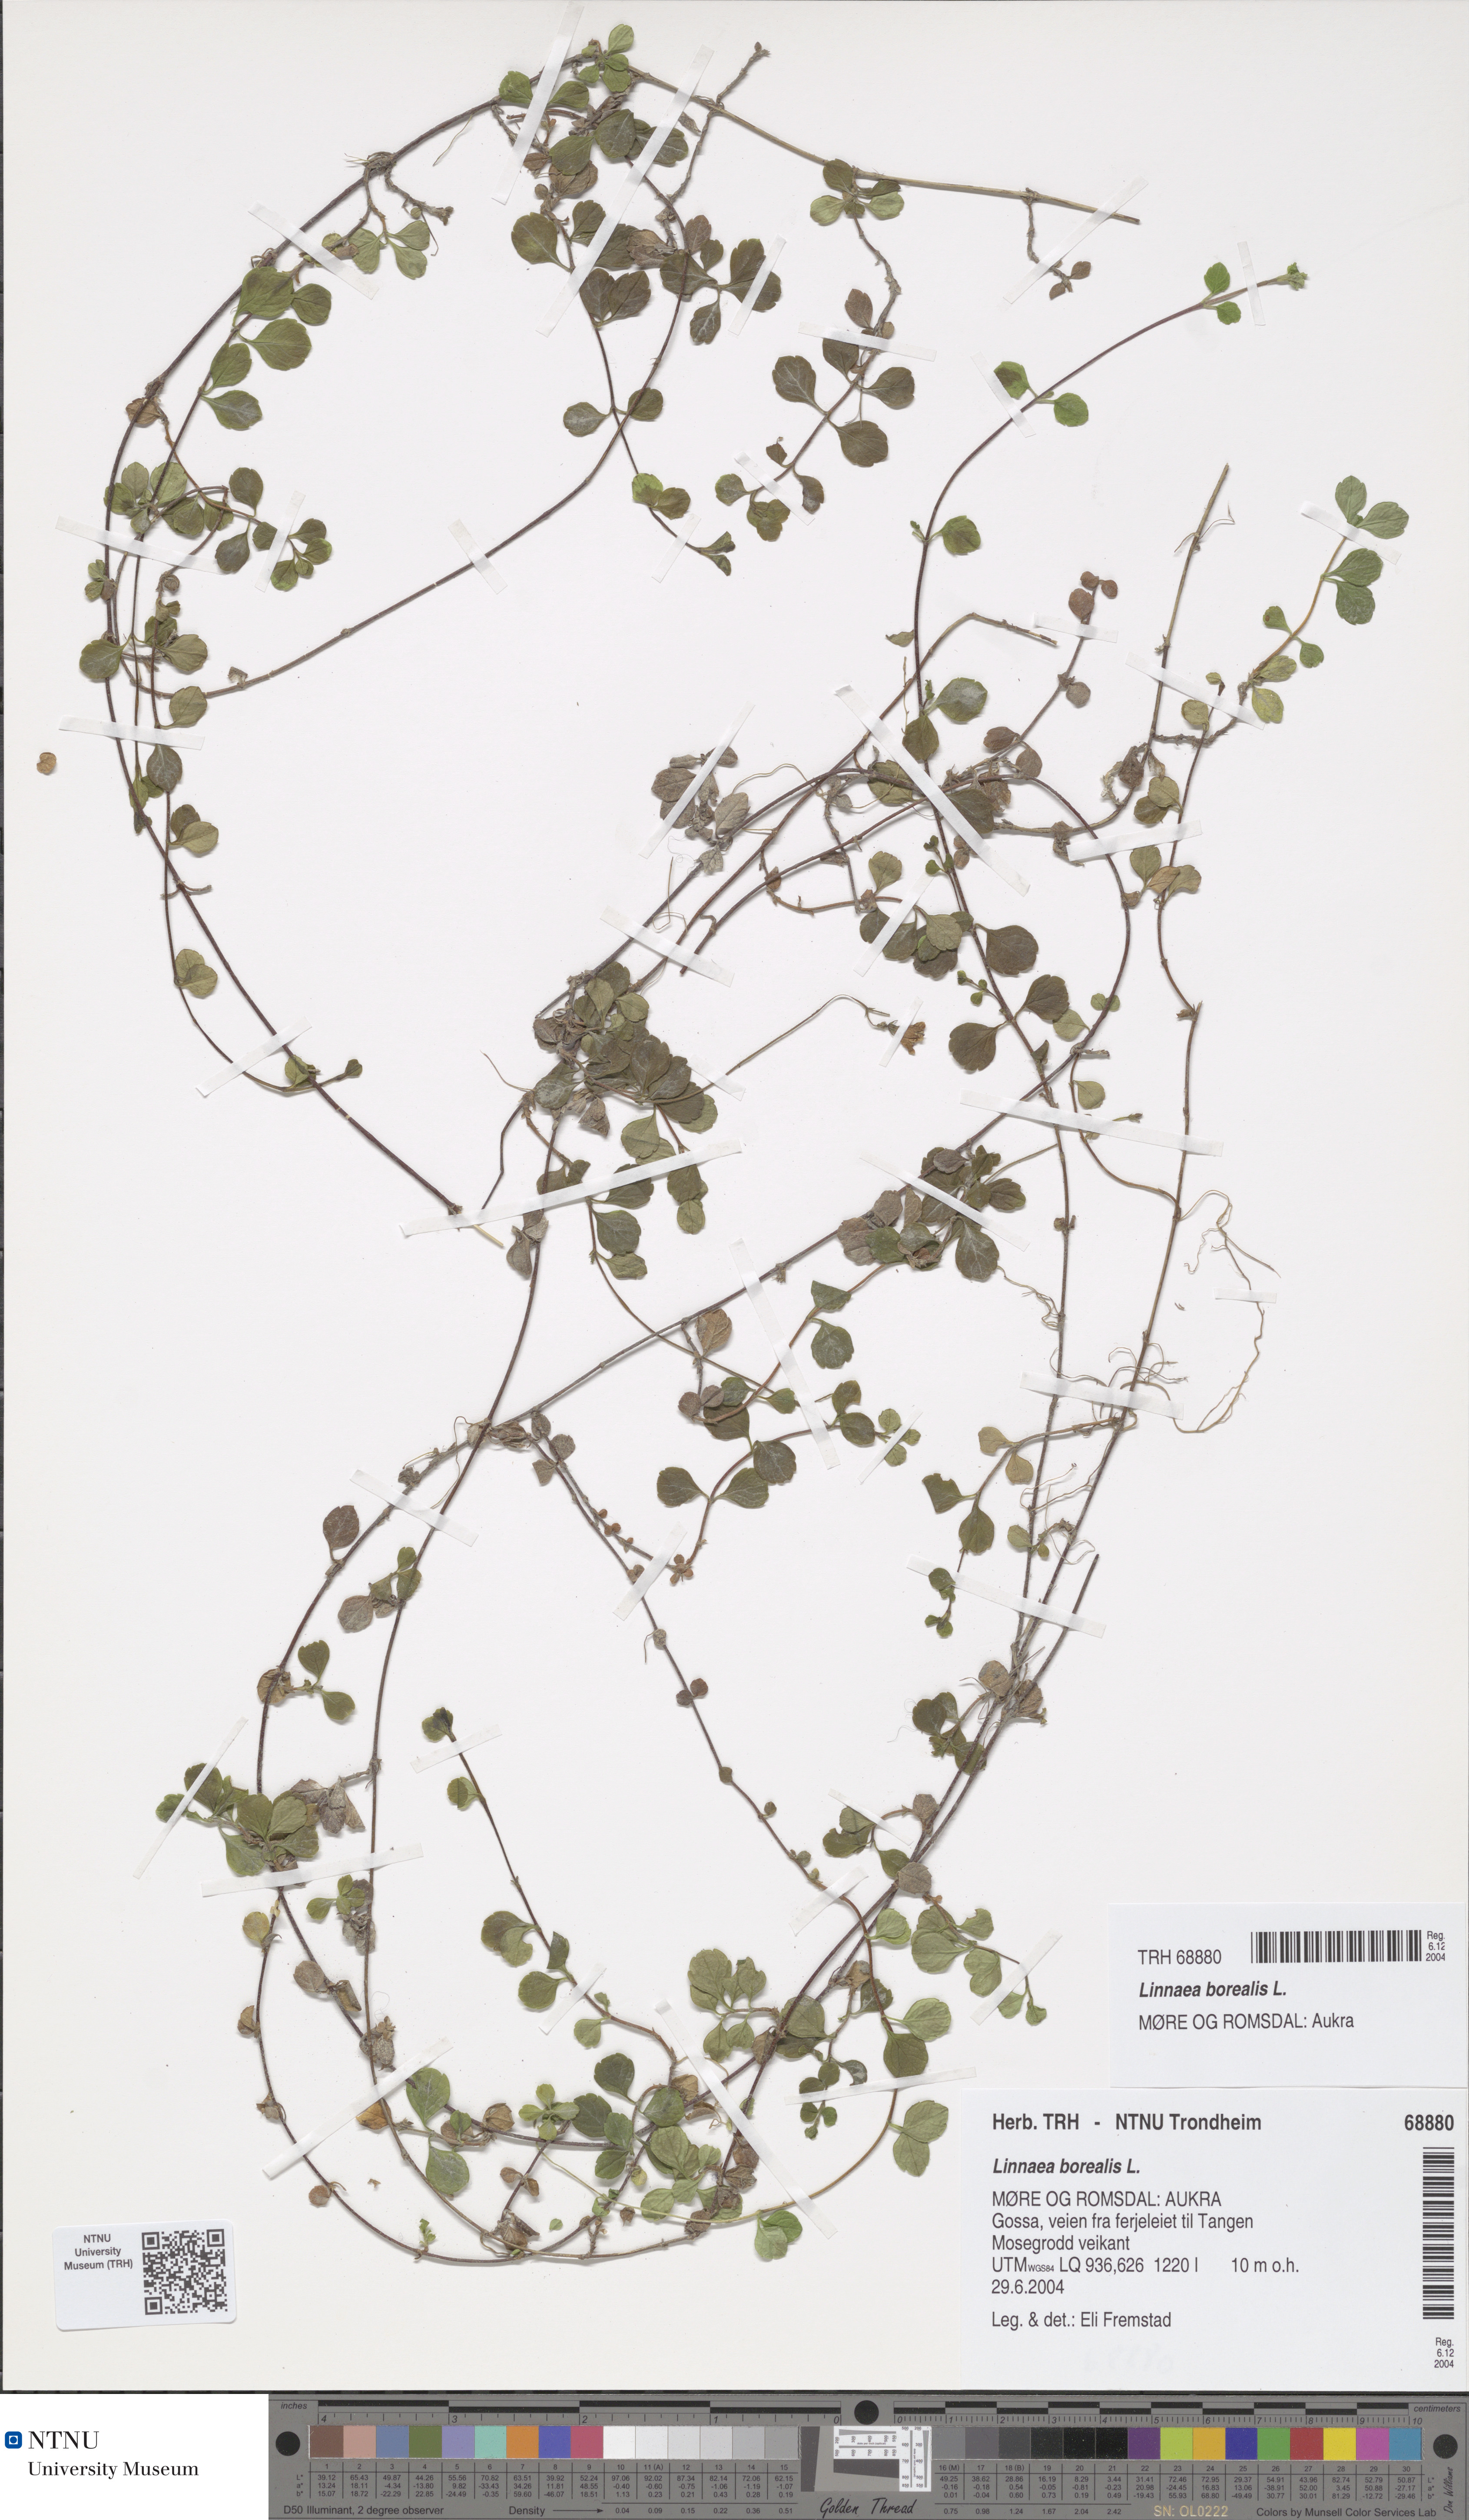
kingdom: Plantae
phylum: Tracheophyta
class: Magnoliopsida
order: Dipsacales
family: Caprifoliaceae
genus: Linnaea
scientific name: Linnaea borealis
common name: Twinflower
